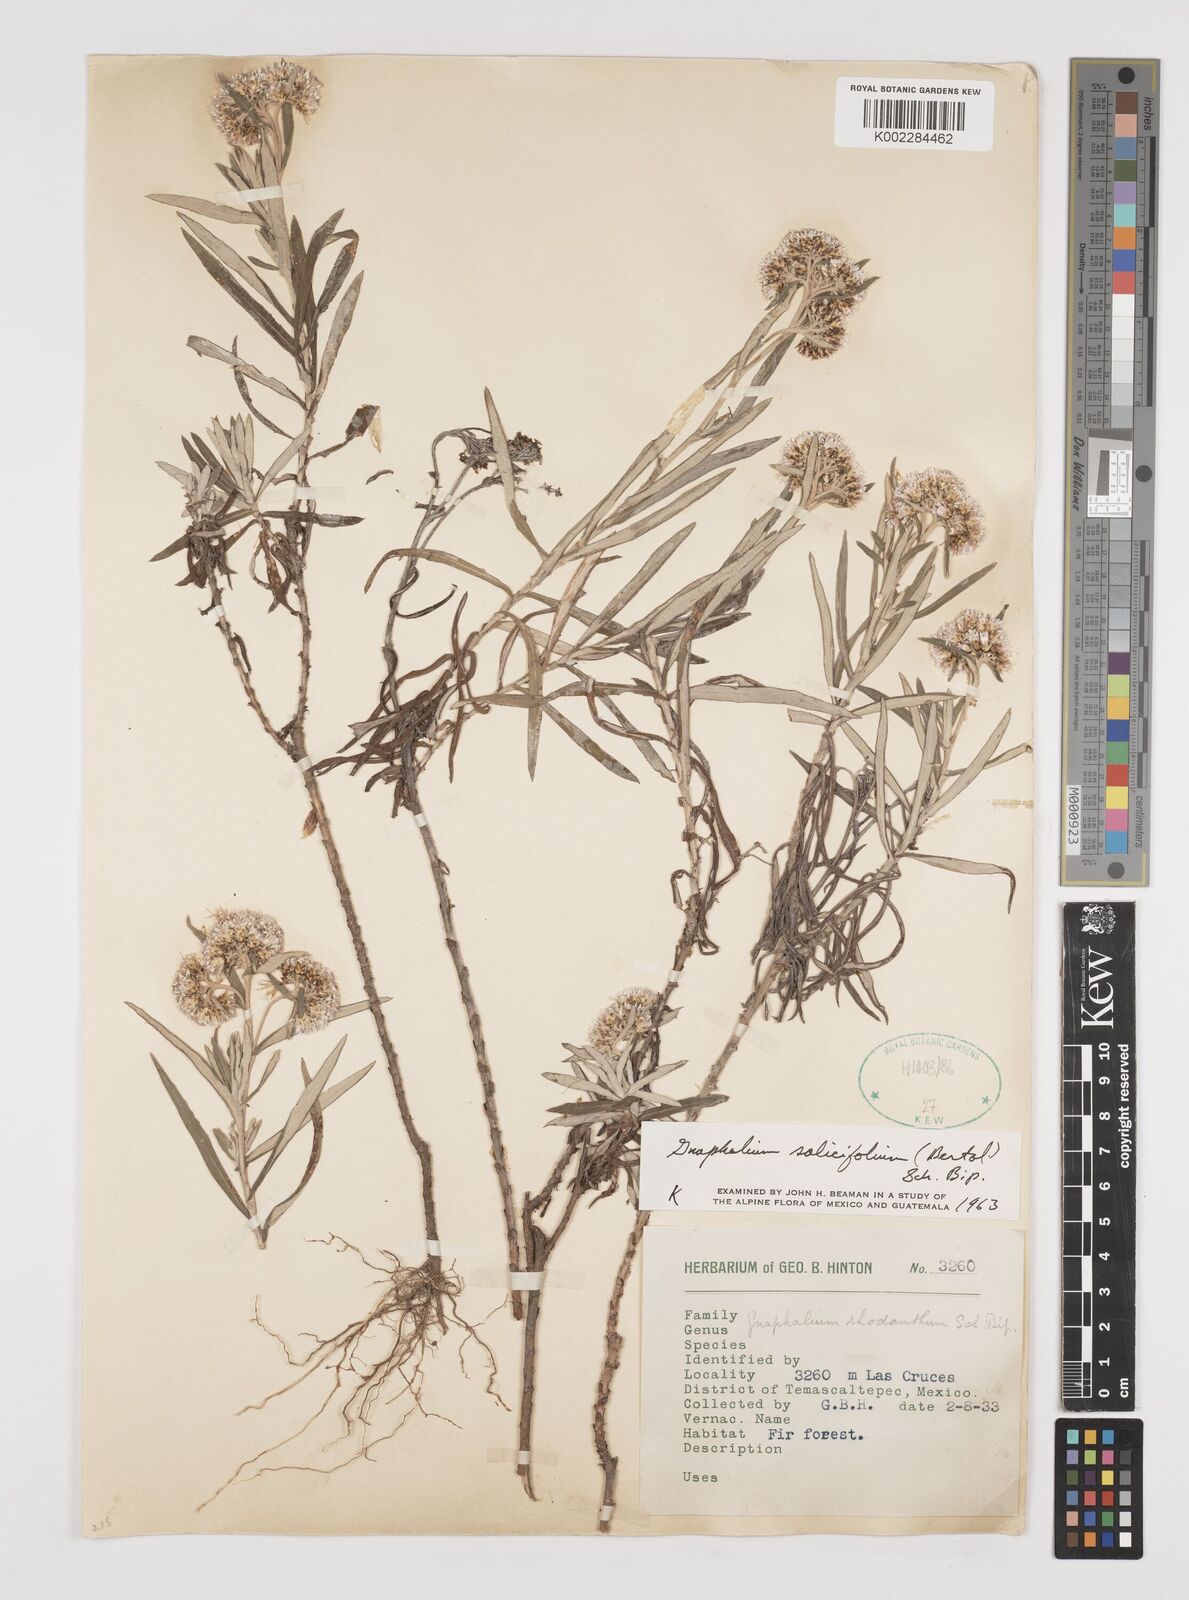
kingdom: Plantae
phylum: Tracheophyta
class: Magnoliopsida
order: Asterales
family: Asteraceae
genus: Gnaphaliothamnus
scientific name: Gnaphaliothamnus salicifolius
